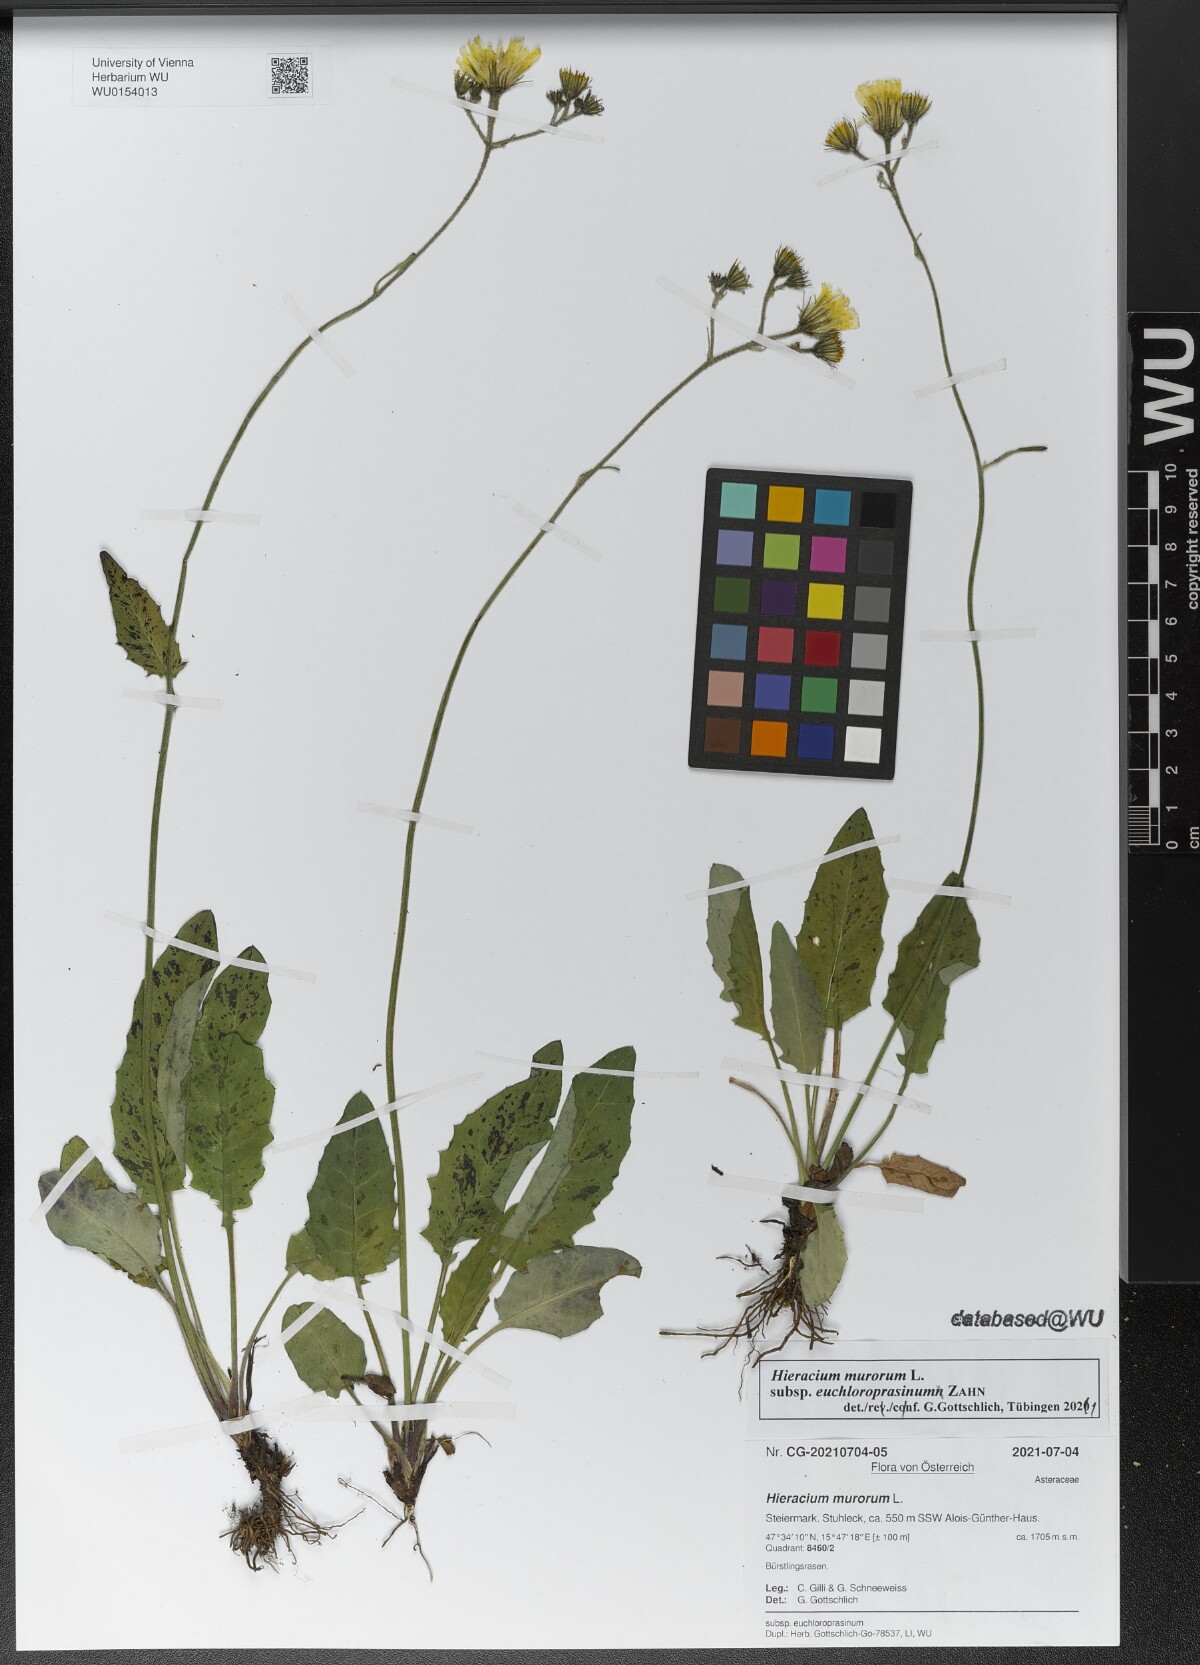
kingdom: Plantae
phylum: Tracheophyta
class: Magnoliopsida
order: Asterales
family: Asteraceae
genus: Hieracium
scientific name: Hieracium murorum
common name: Wall hawkweed
